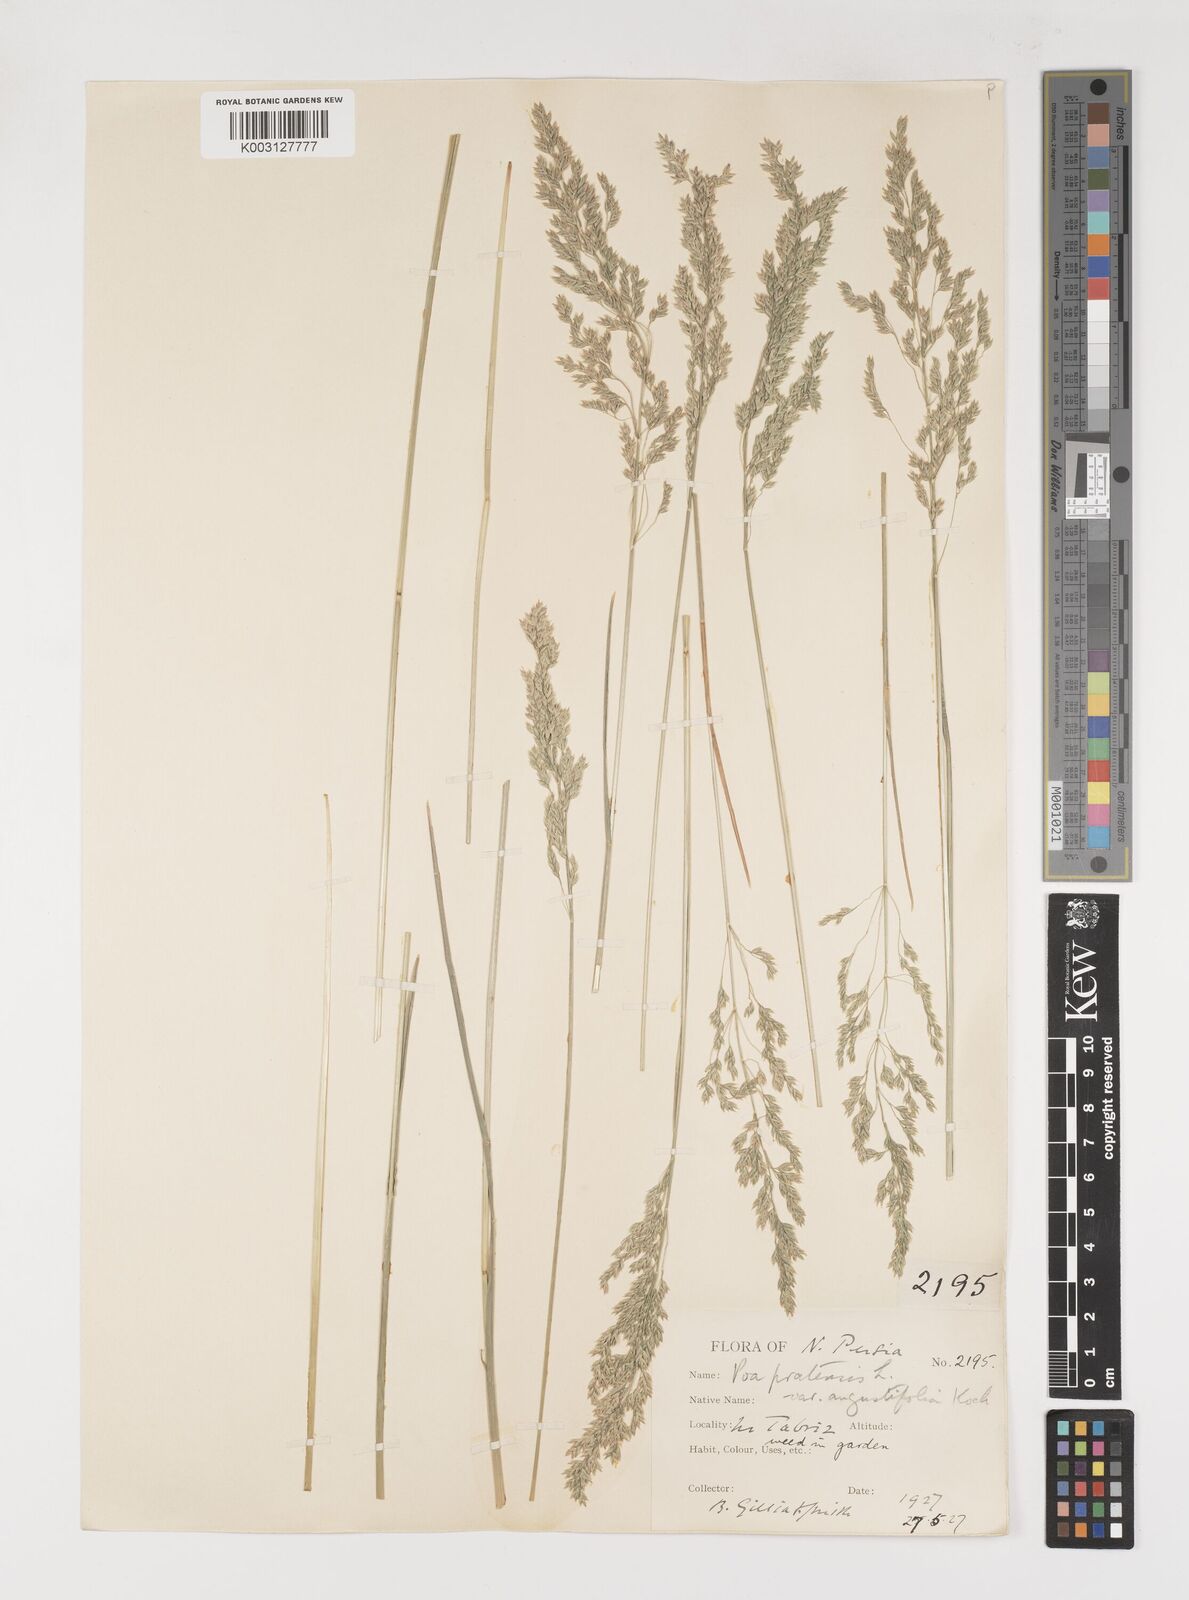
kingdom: Plantae
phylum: Tracheophyta
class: Liliopsida
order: Poales
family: Poaceae
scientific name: Poaceae
